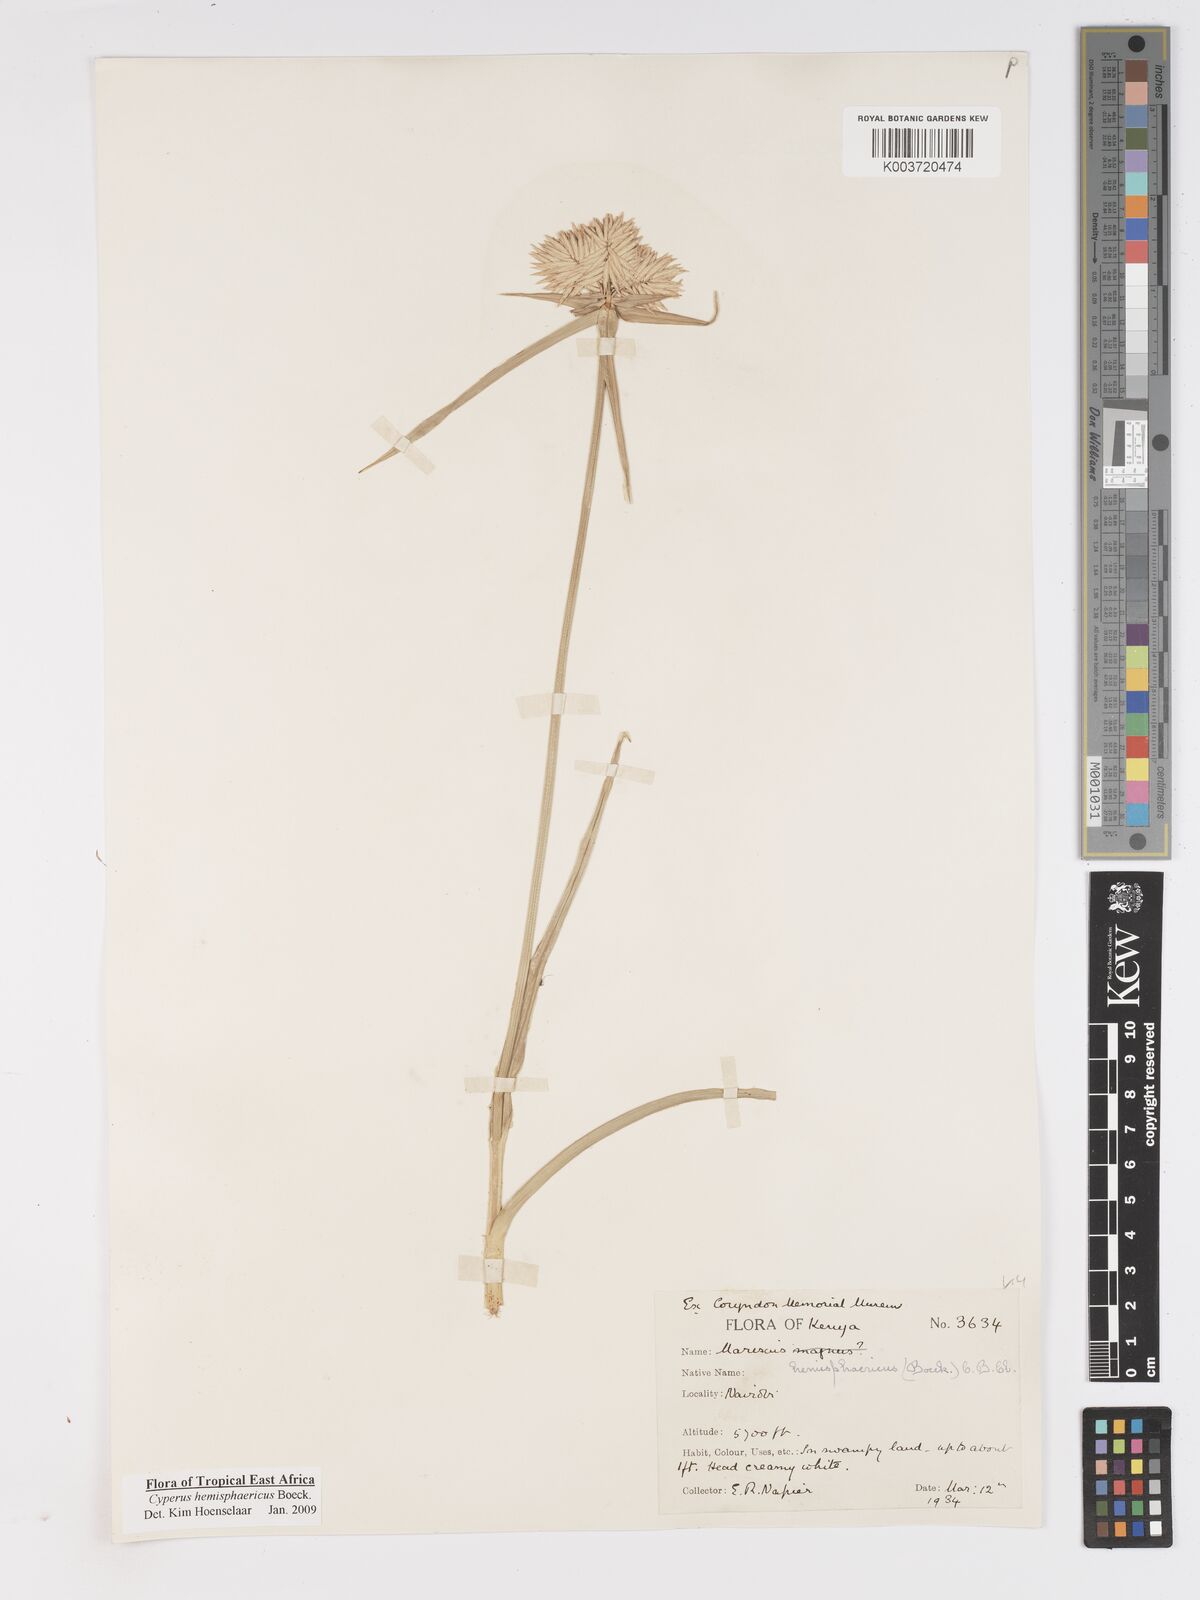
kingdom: Plantae
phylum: Tracheophyta
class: Liliopsida
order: Poales
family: Cyperaceae
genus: Cyperus
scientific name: Cyperus hemisphaericus
